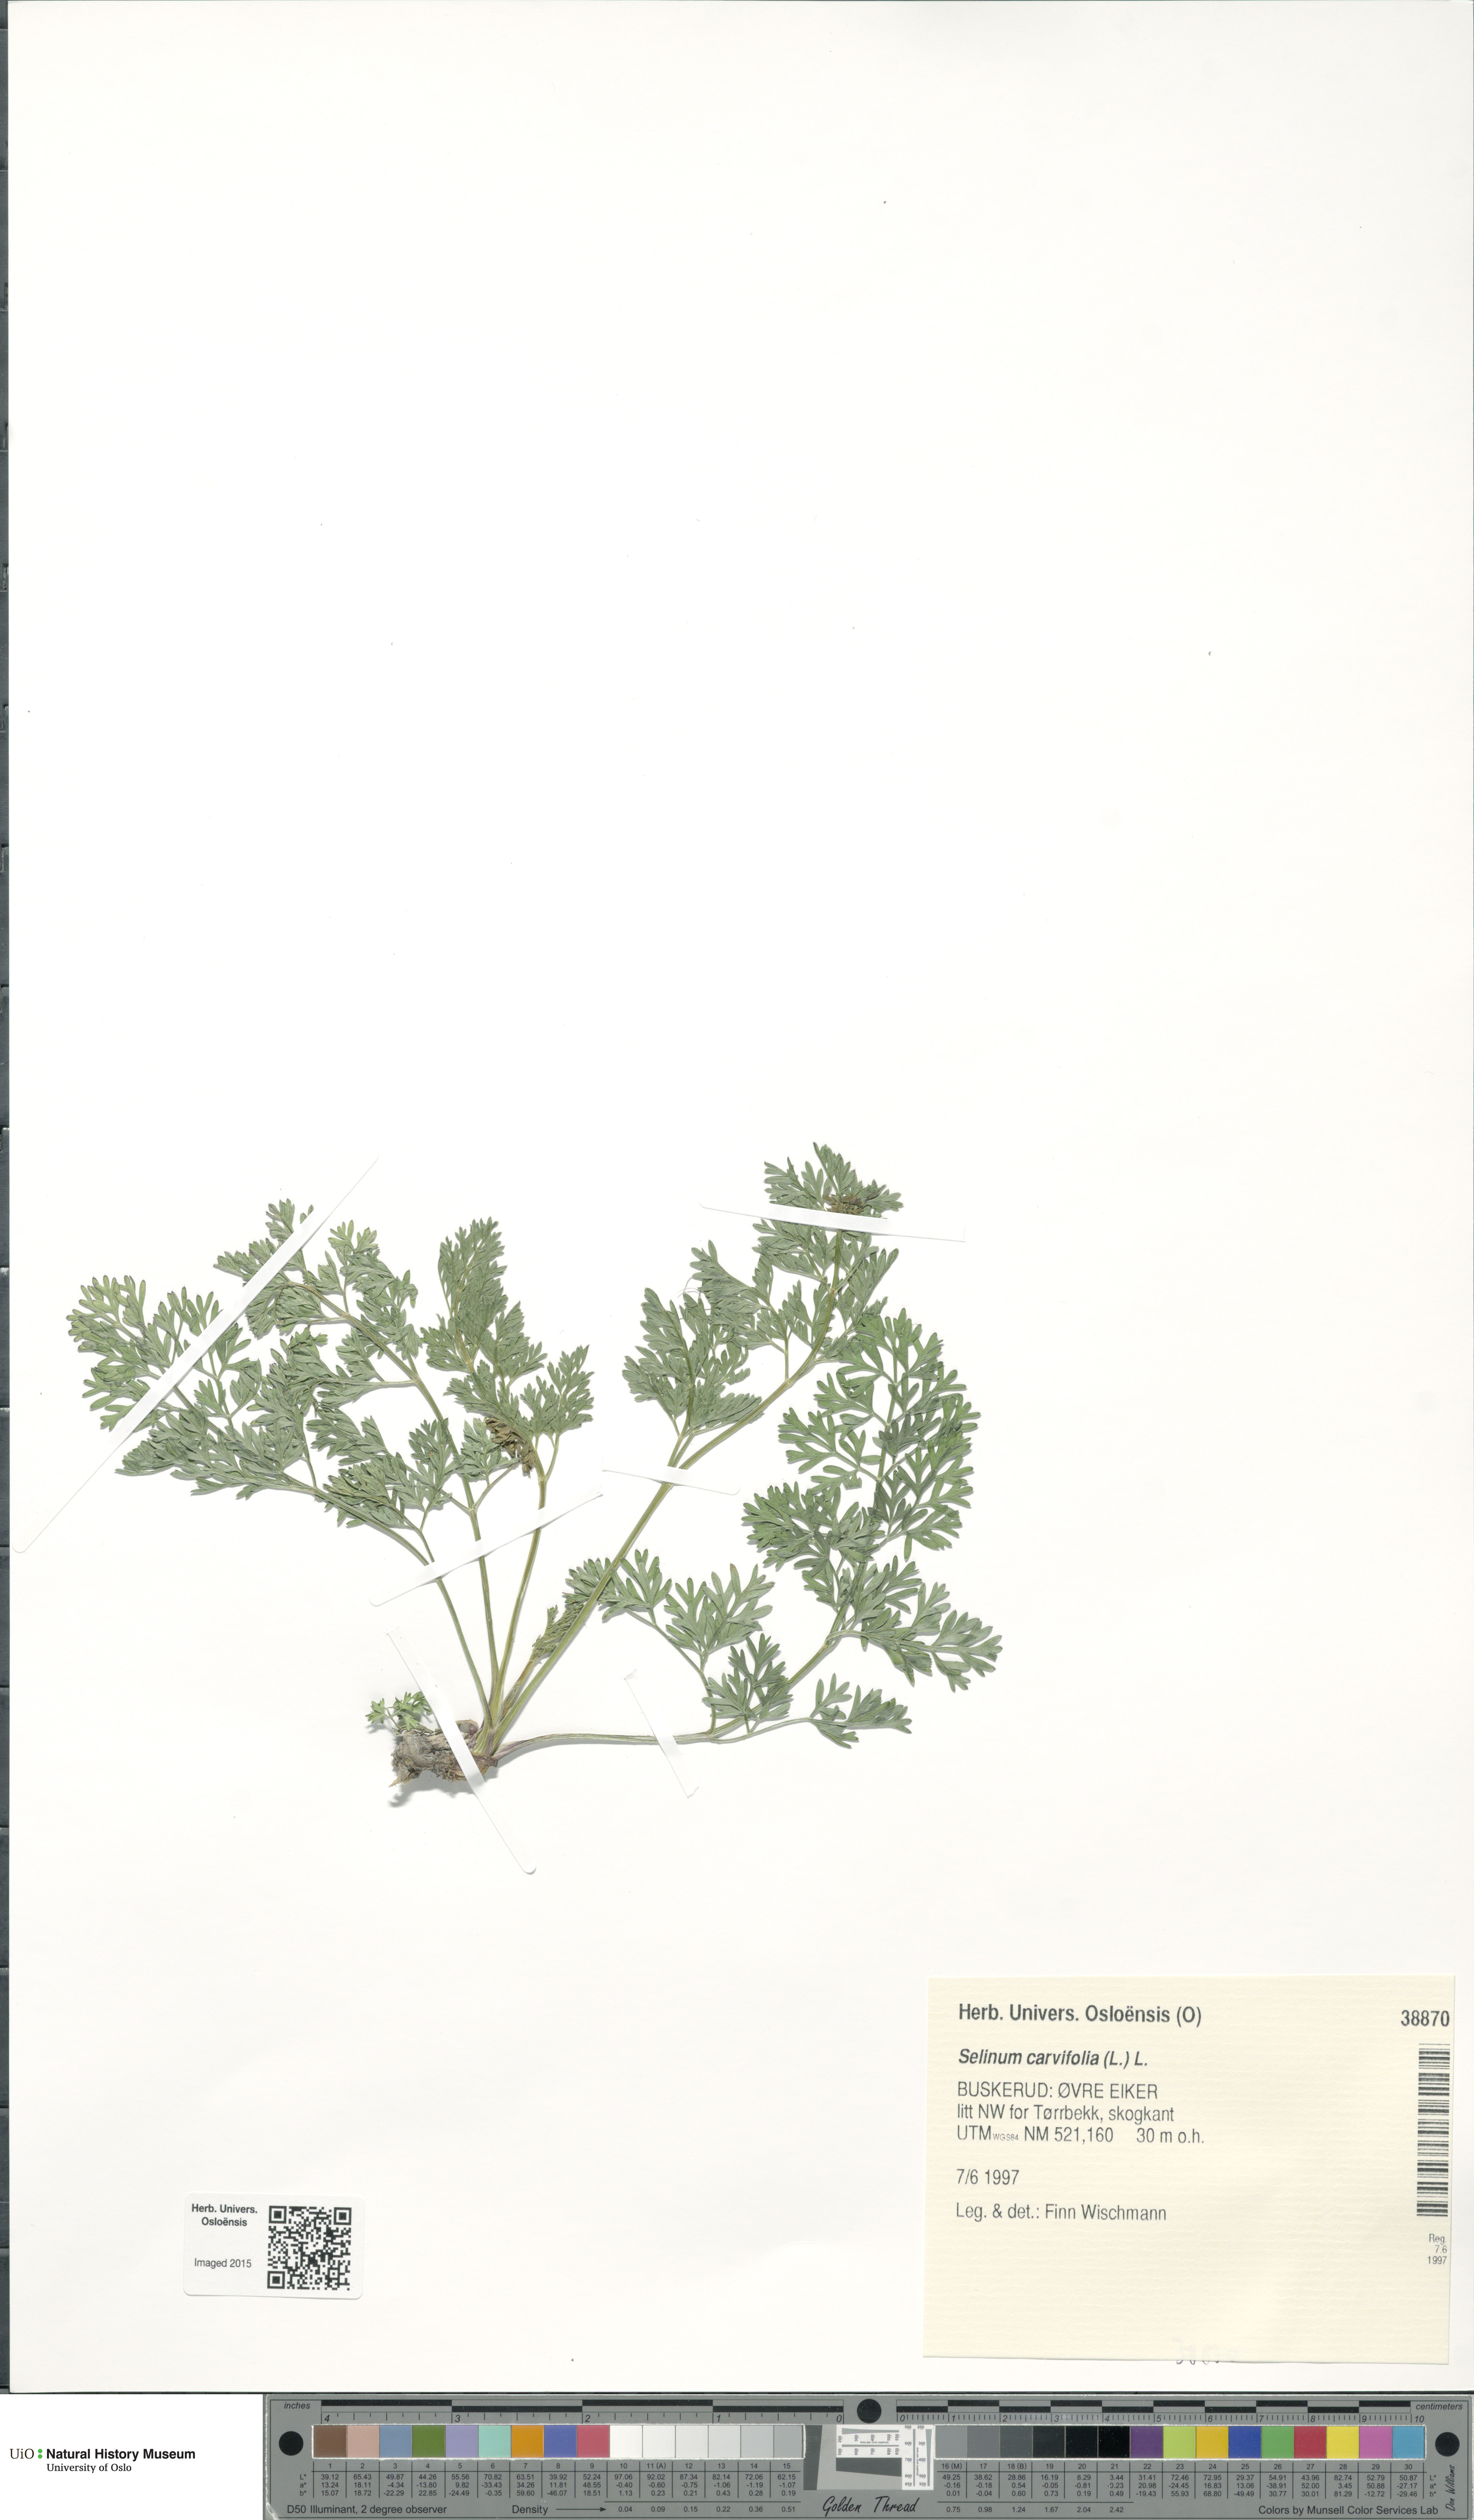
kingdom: Plantae
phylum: Tracheophyta
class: Magnoliopsida
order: Apiales
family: Apiaceae
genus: Selinum
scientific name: Selinum carvifolia
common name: Cambridge milk-parsley
